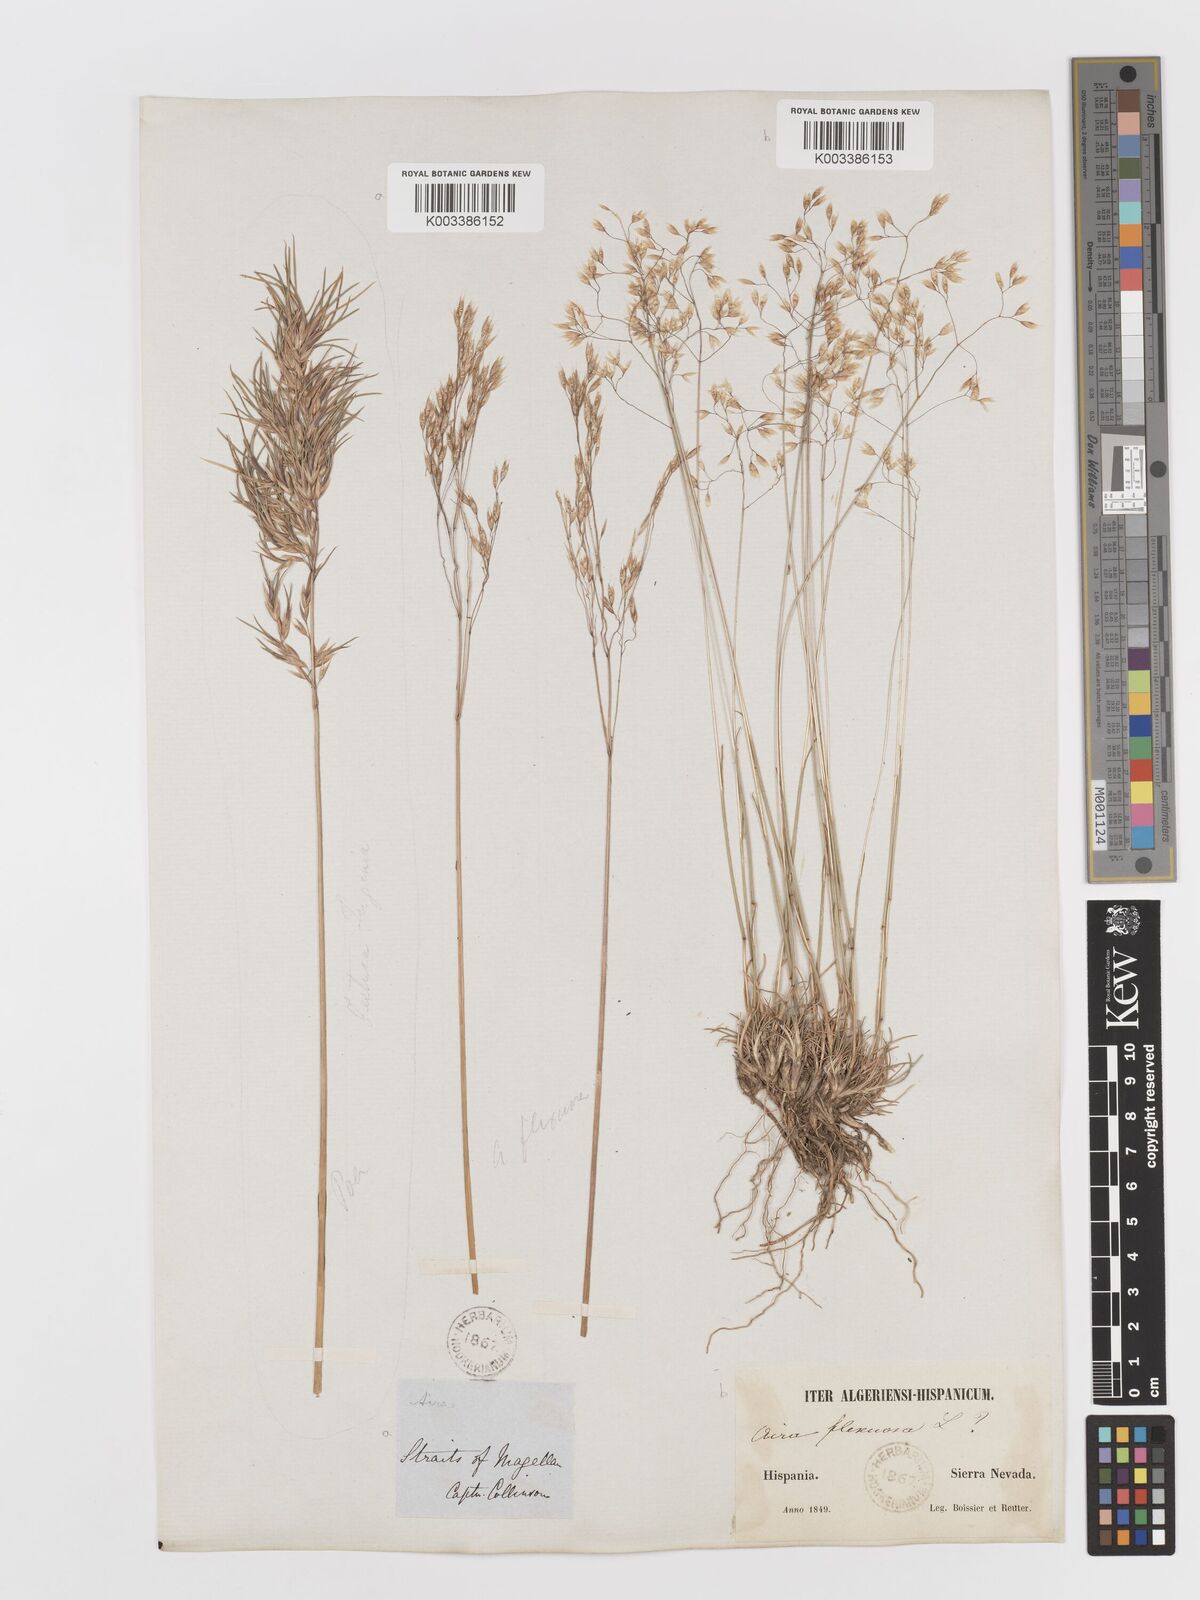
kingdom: Plantae
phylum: Tracheophyta
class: Liliopsida
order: Poales
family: Poaceae
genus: Avenella
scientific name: Avenella flexuosa
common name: Wavy hairgrass
